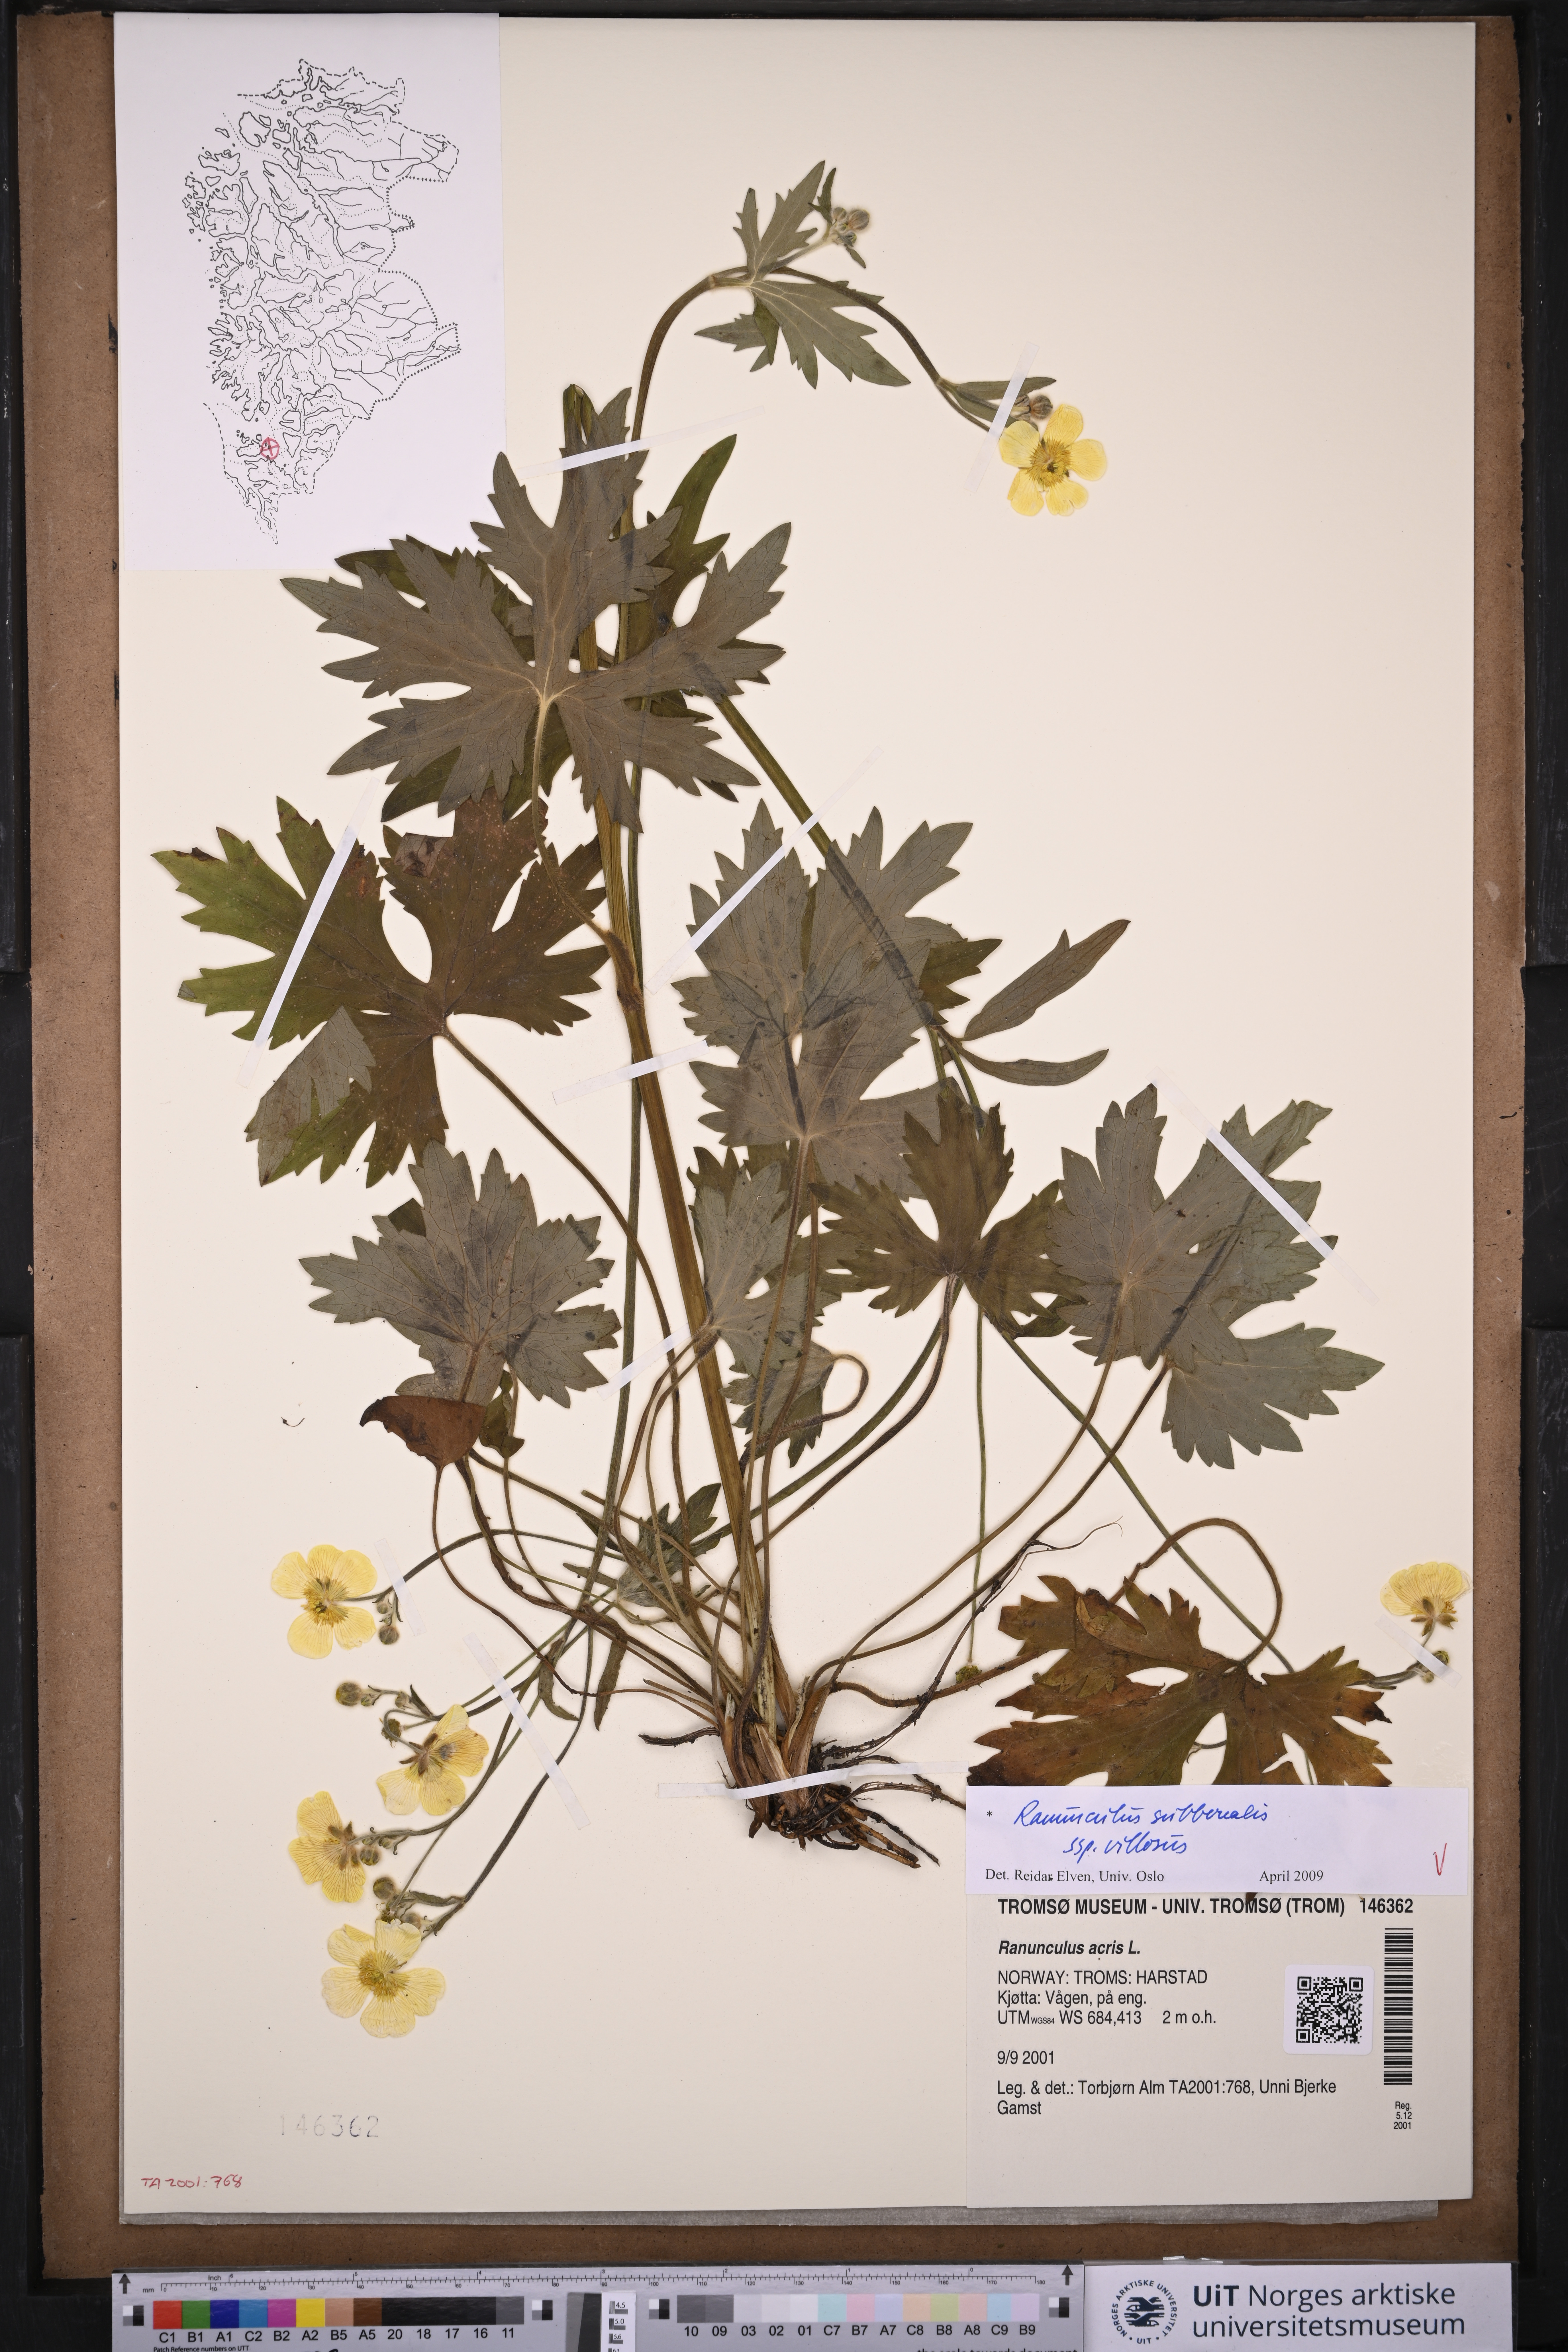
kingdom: Plantae
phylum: Tracheophyta
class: Magnoliopsida
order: Ranunculales
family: Ranunculaceae
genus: Ranunculus
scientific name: Ranunculus propinquus
